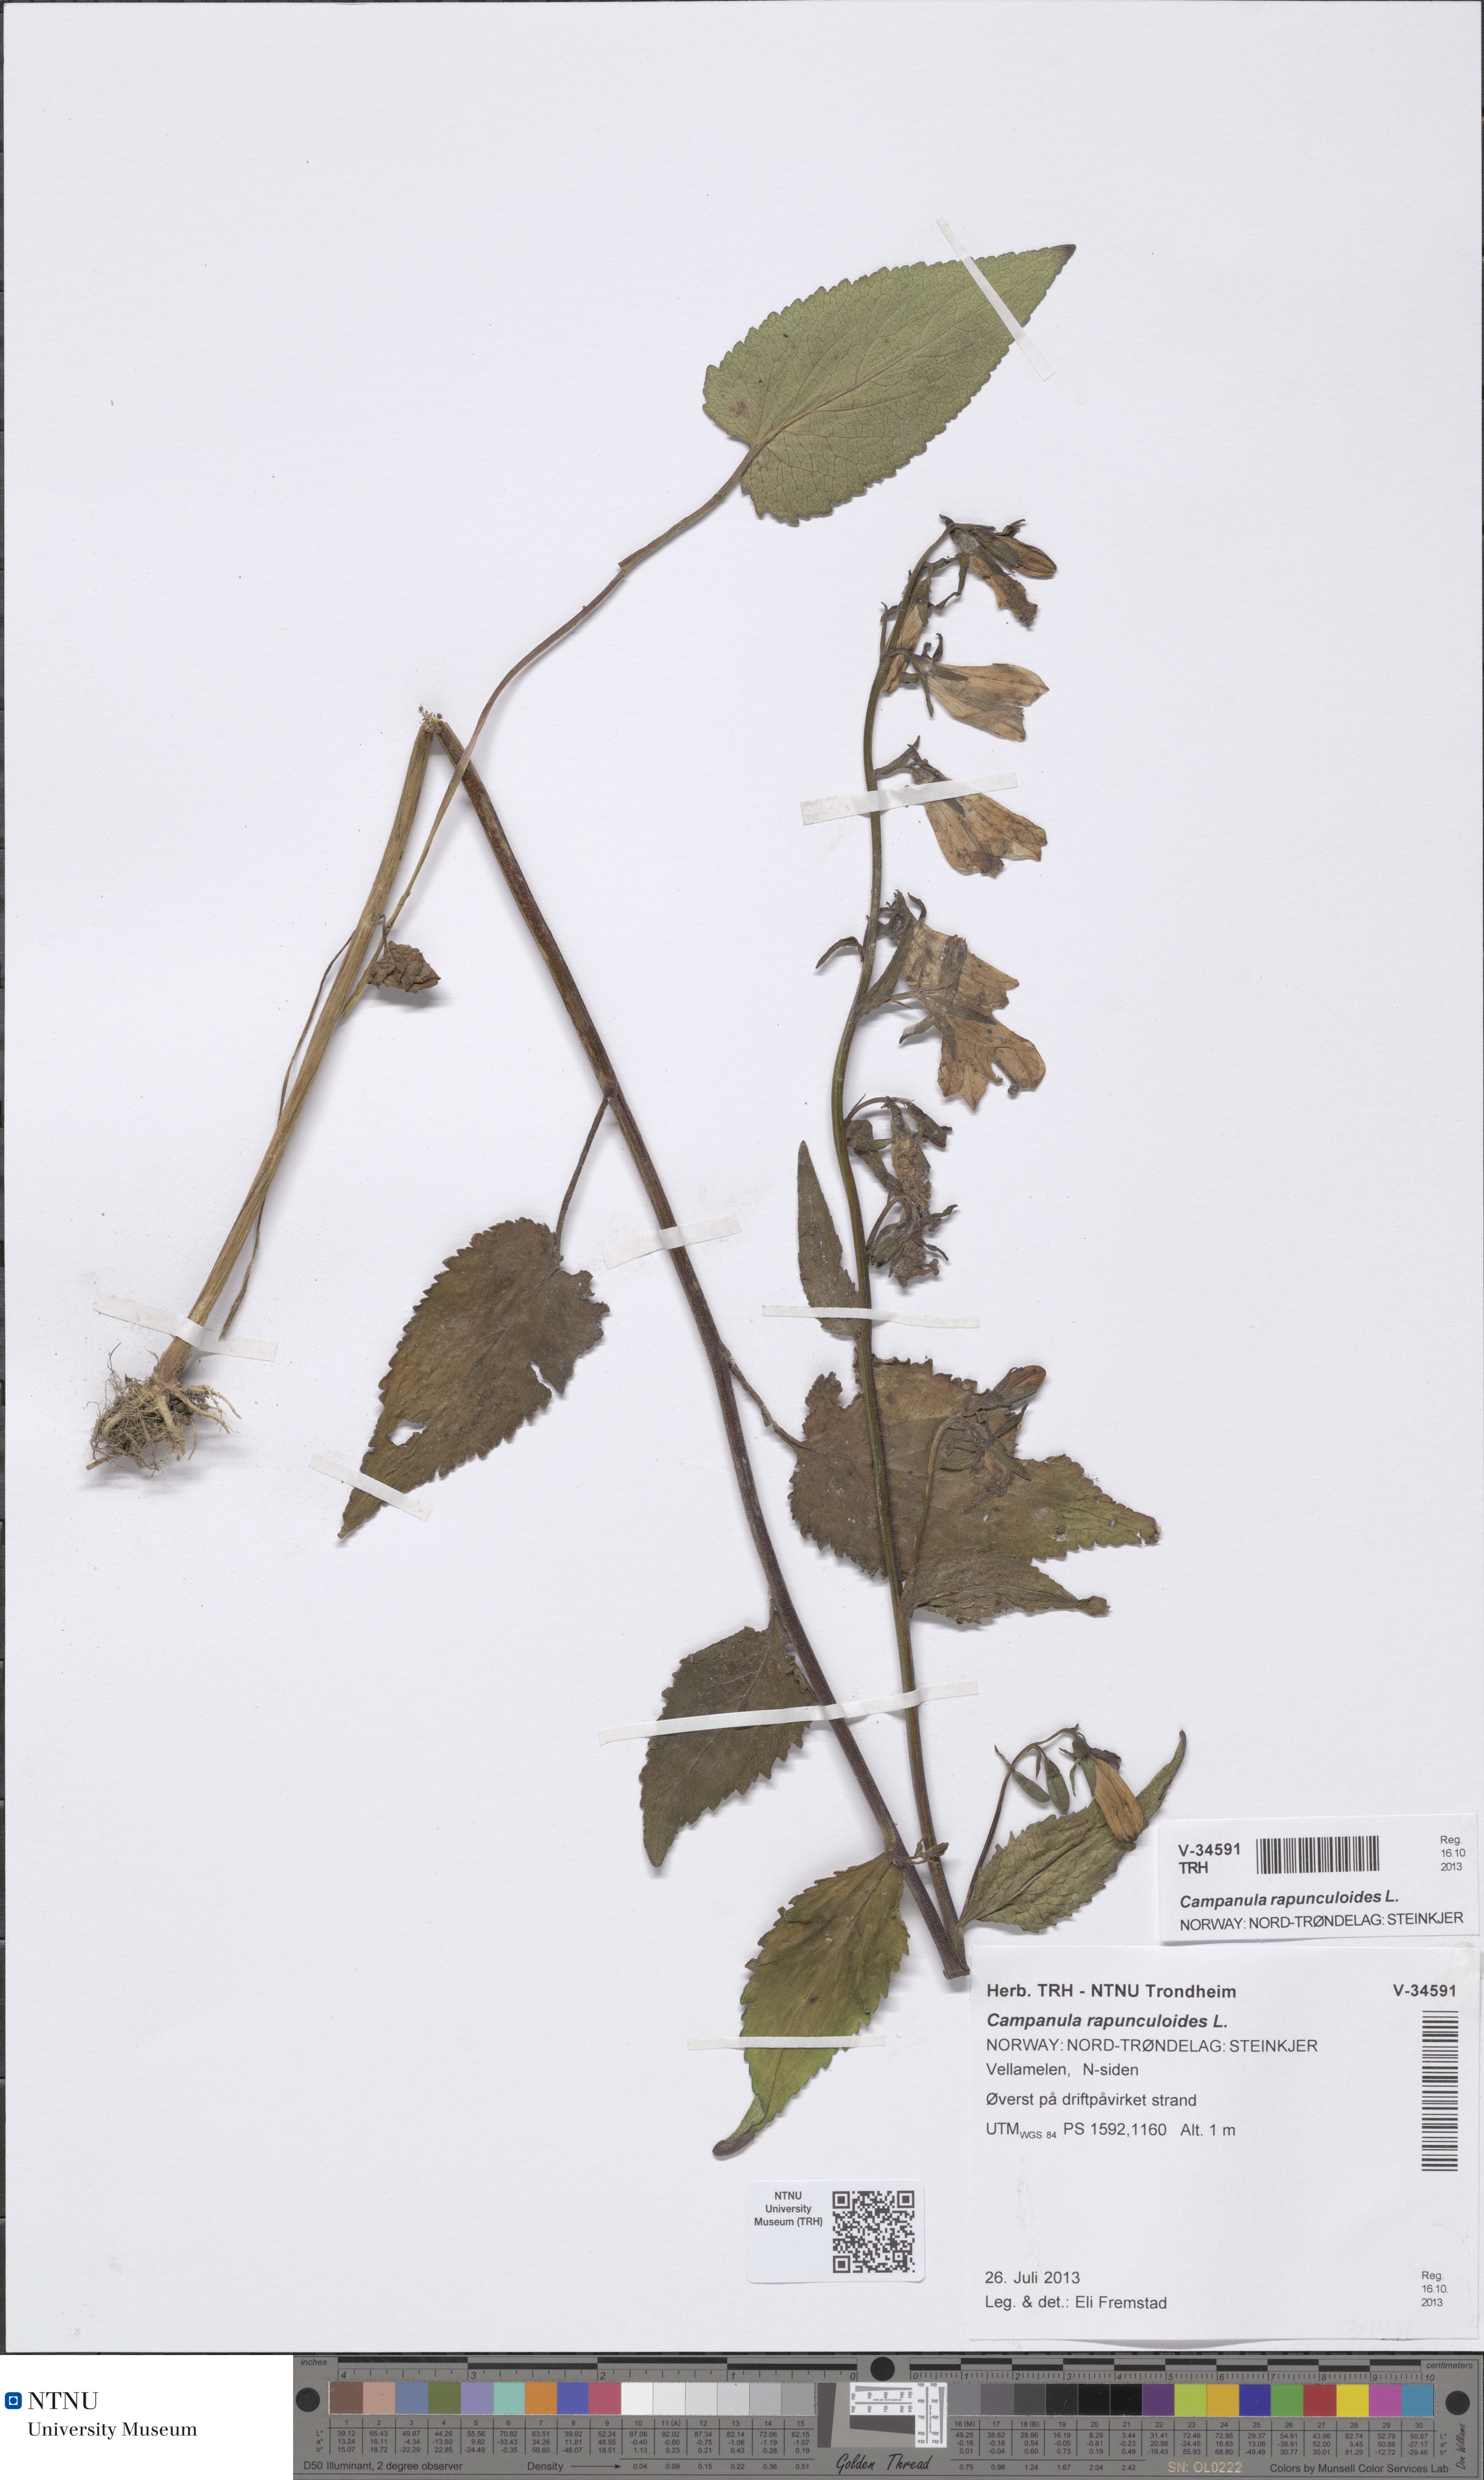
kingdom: Plantae
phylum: Tracheophyta
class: Magnoliopsida
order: Asterales
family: Campanulaceae
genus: Campanula
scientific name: Campanula rapunculoides
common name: Creeping bellflower
